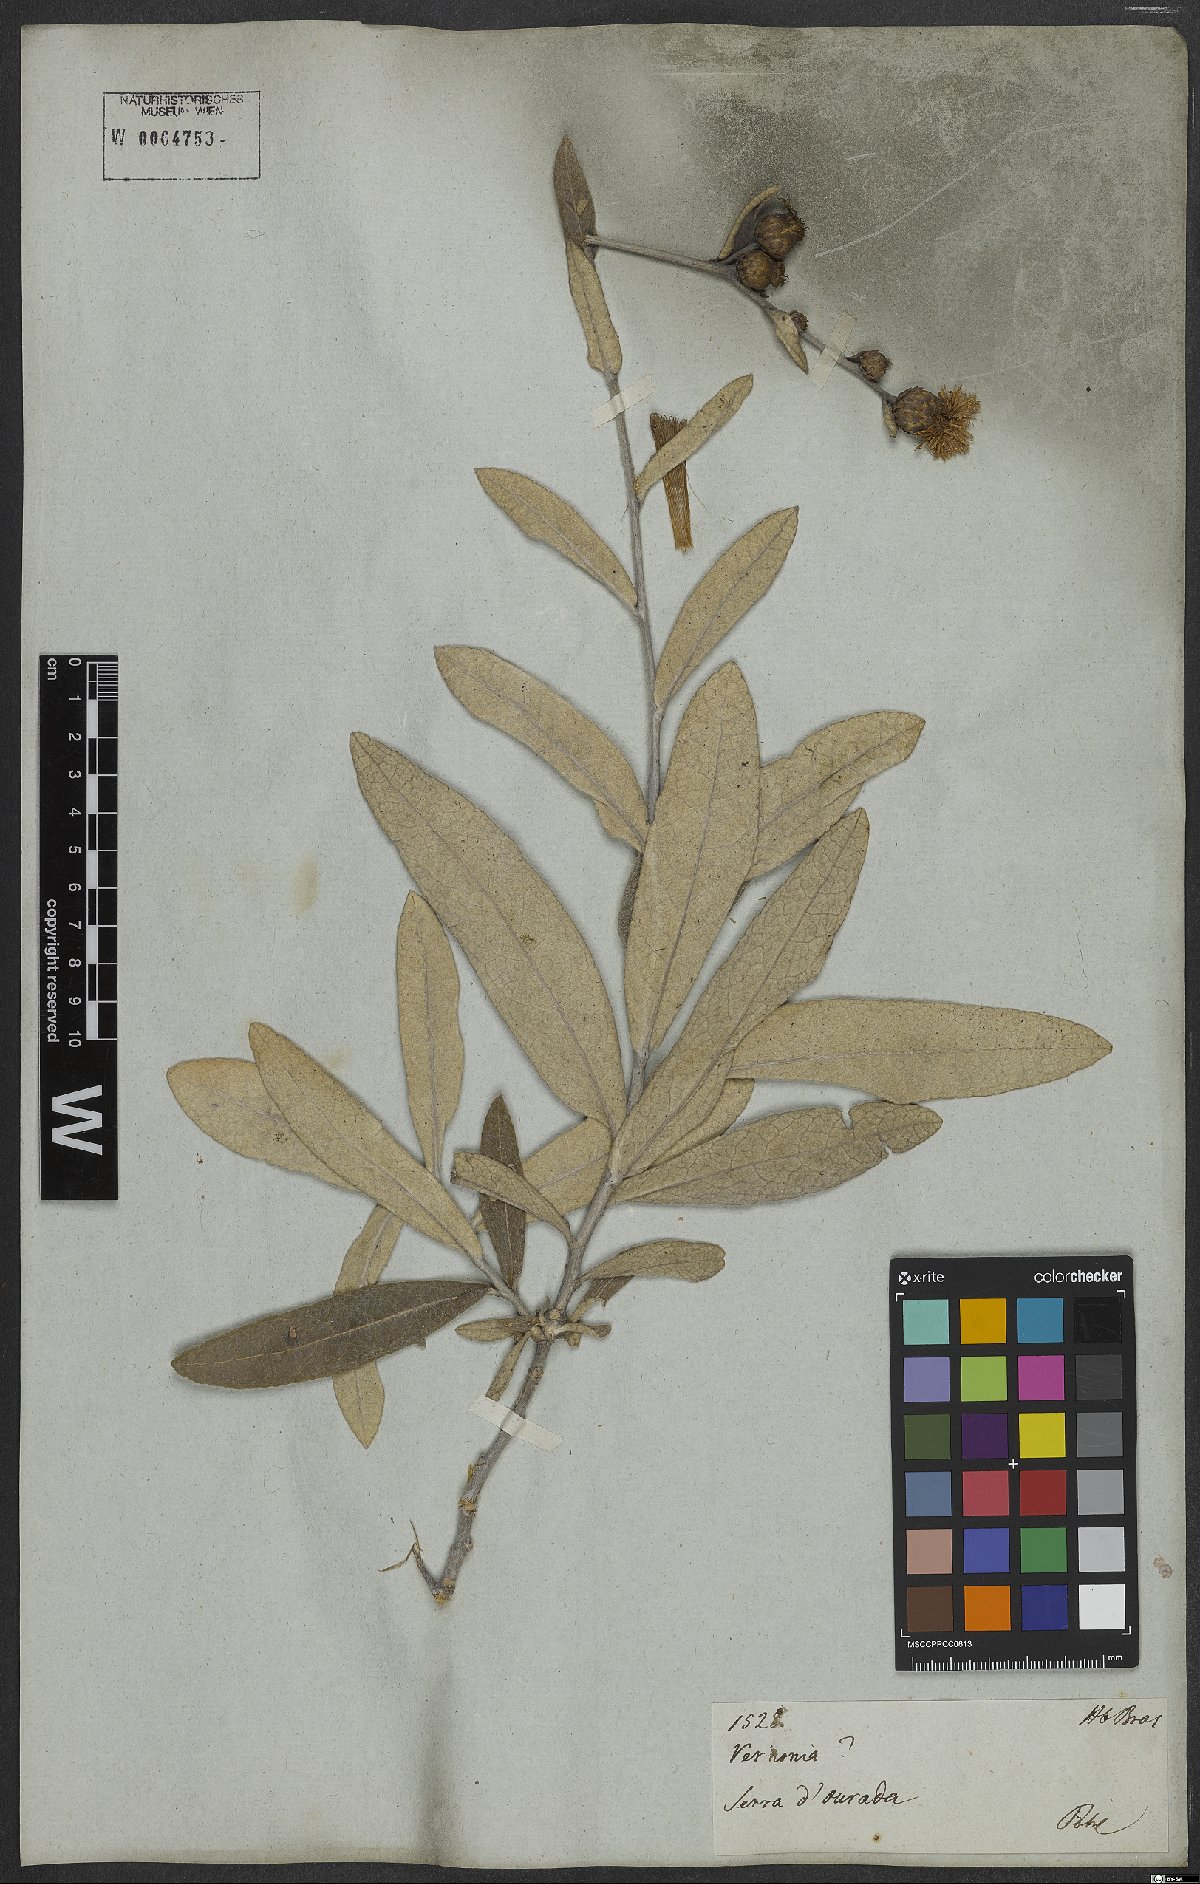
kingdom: Plantae
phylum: Tracheophyta
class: Magnoliopsida
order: Asterales
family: Asteraceae
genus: Vernonia
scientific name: Vernonia
